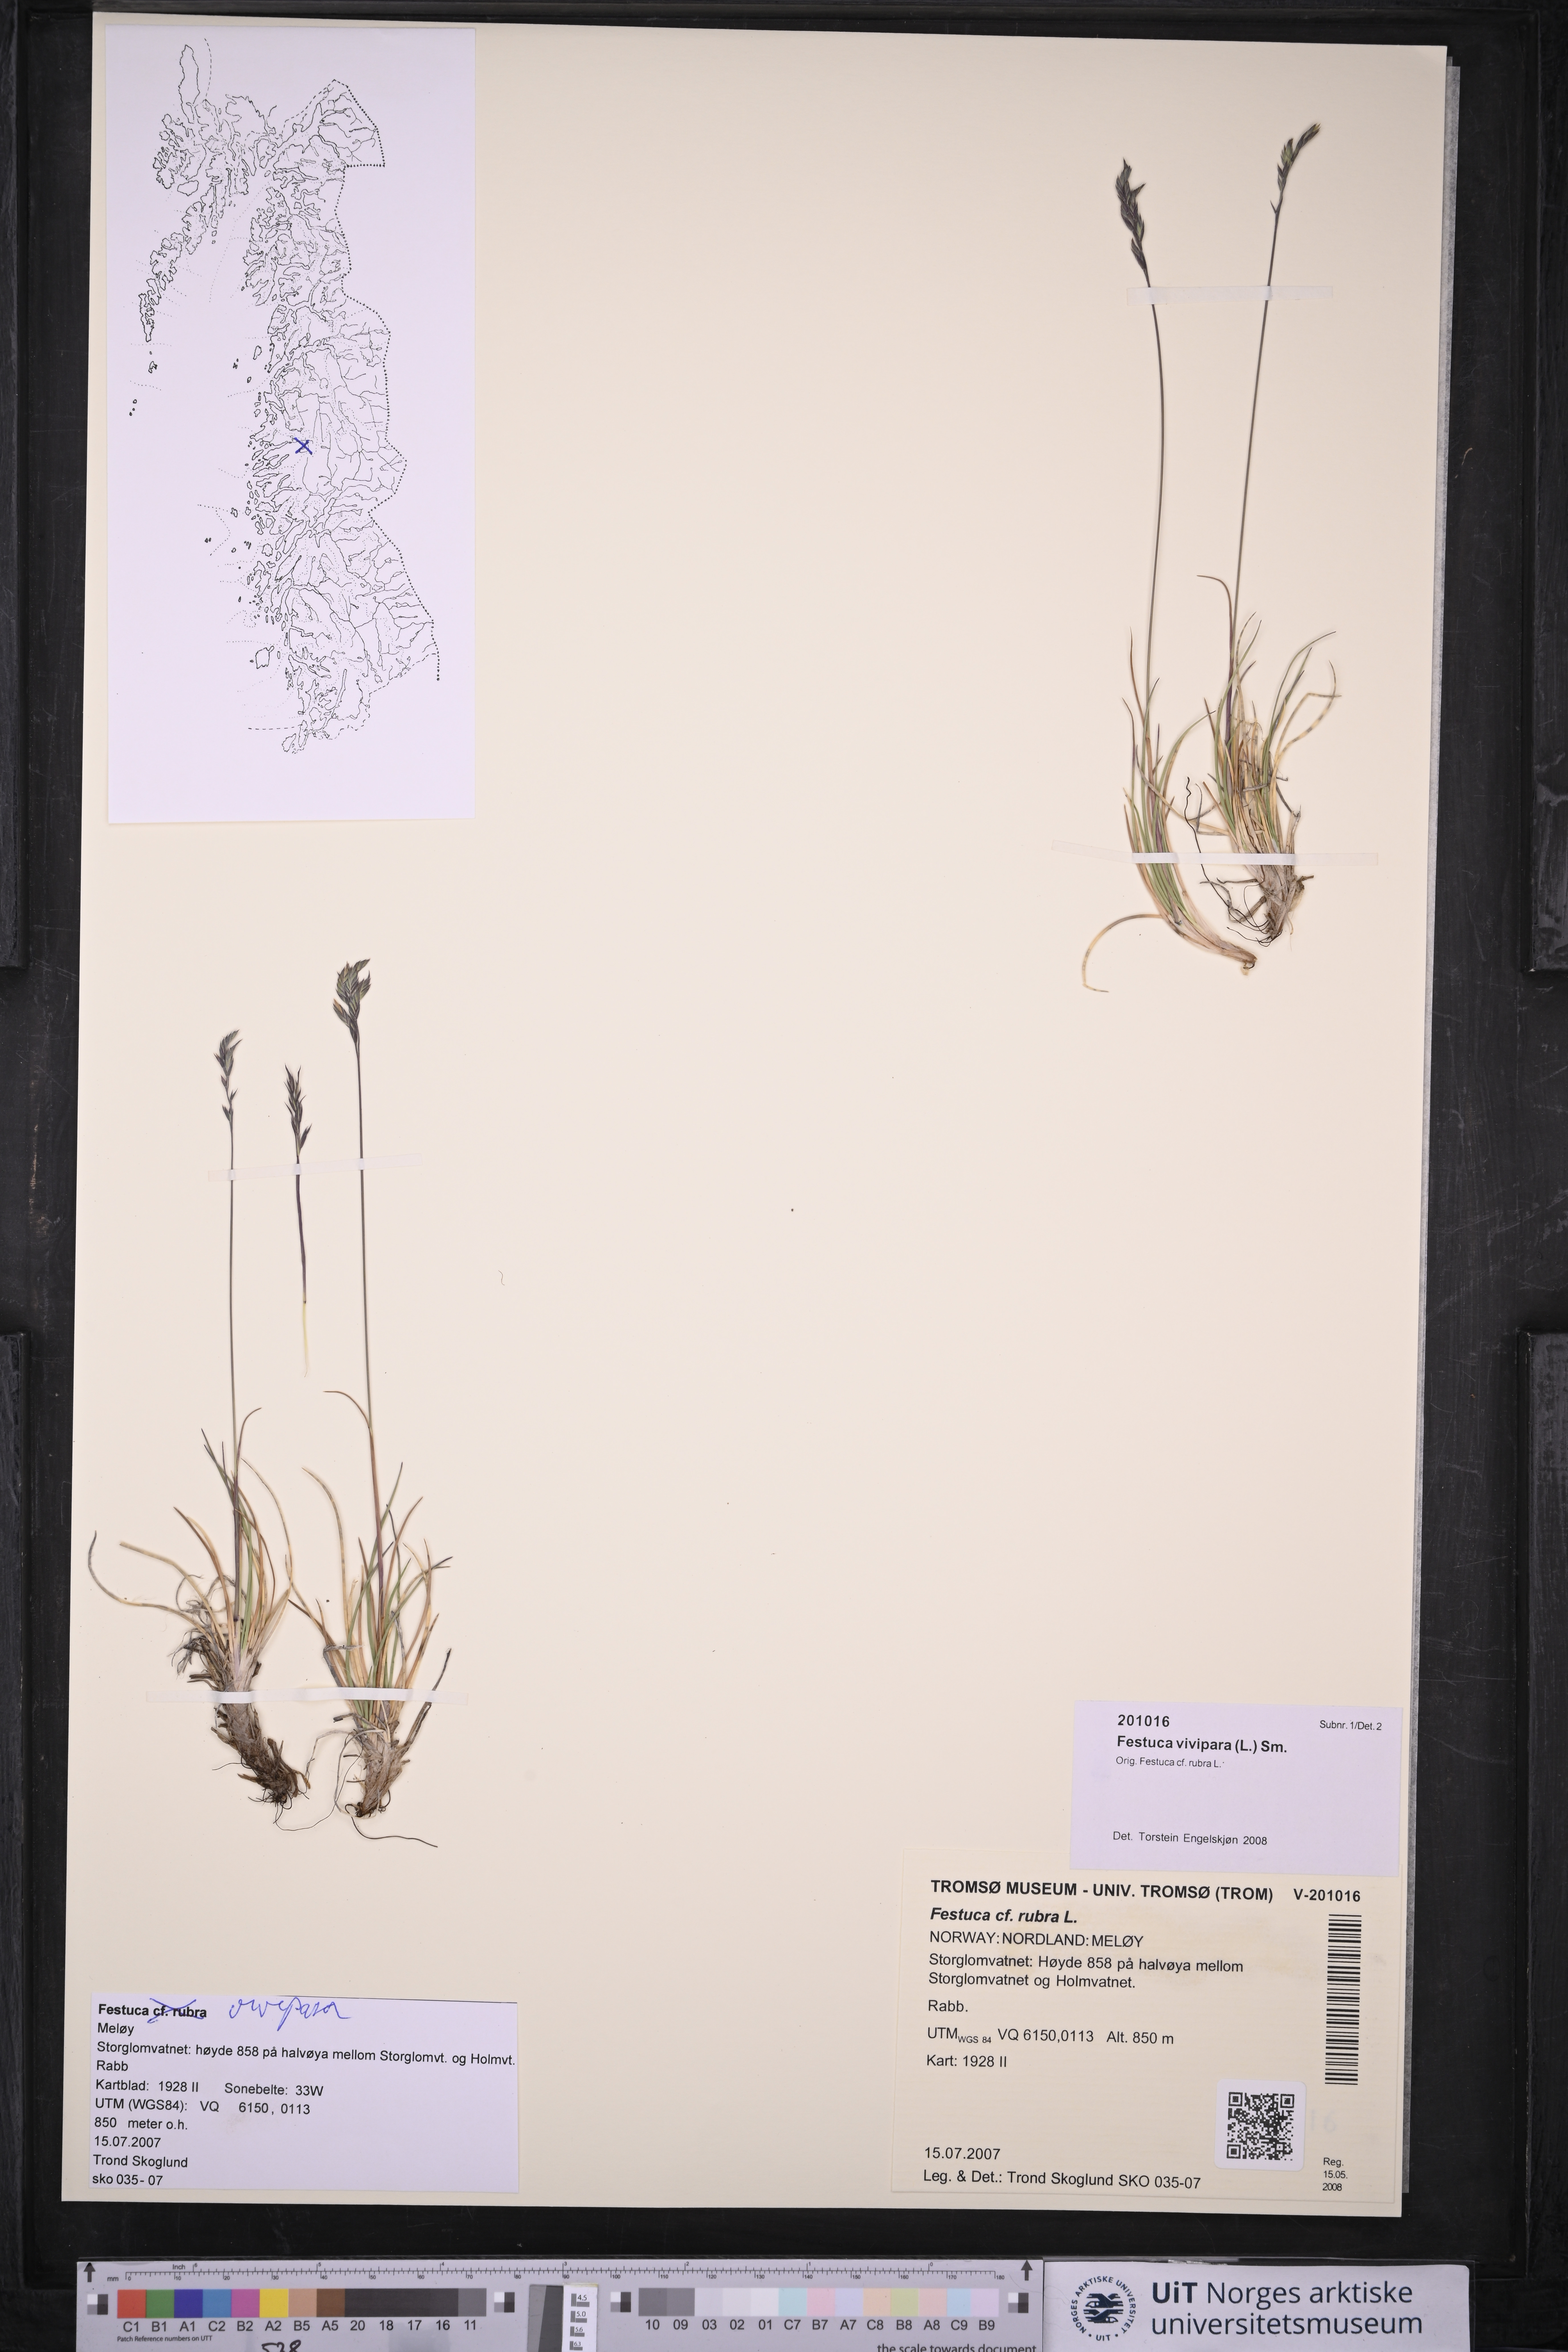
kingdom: Plantae
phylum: Tracheophyta
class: Liliopsida
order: Poales
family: Poaceae
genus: Festuca
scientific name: Festuca vivipara
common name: Viviparous sheep's-fescue
